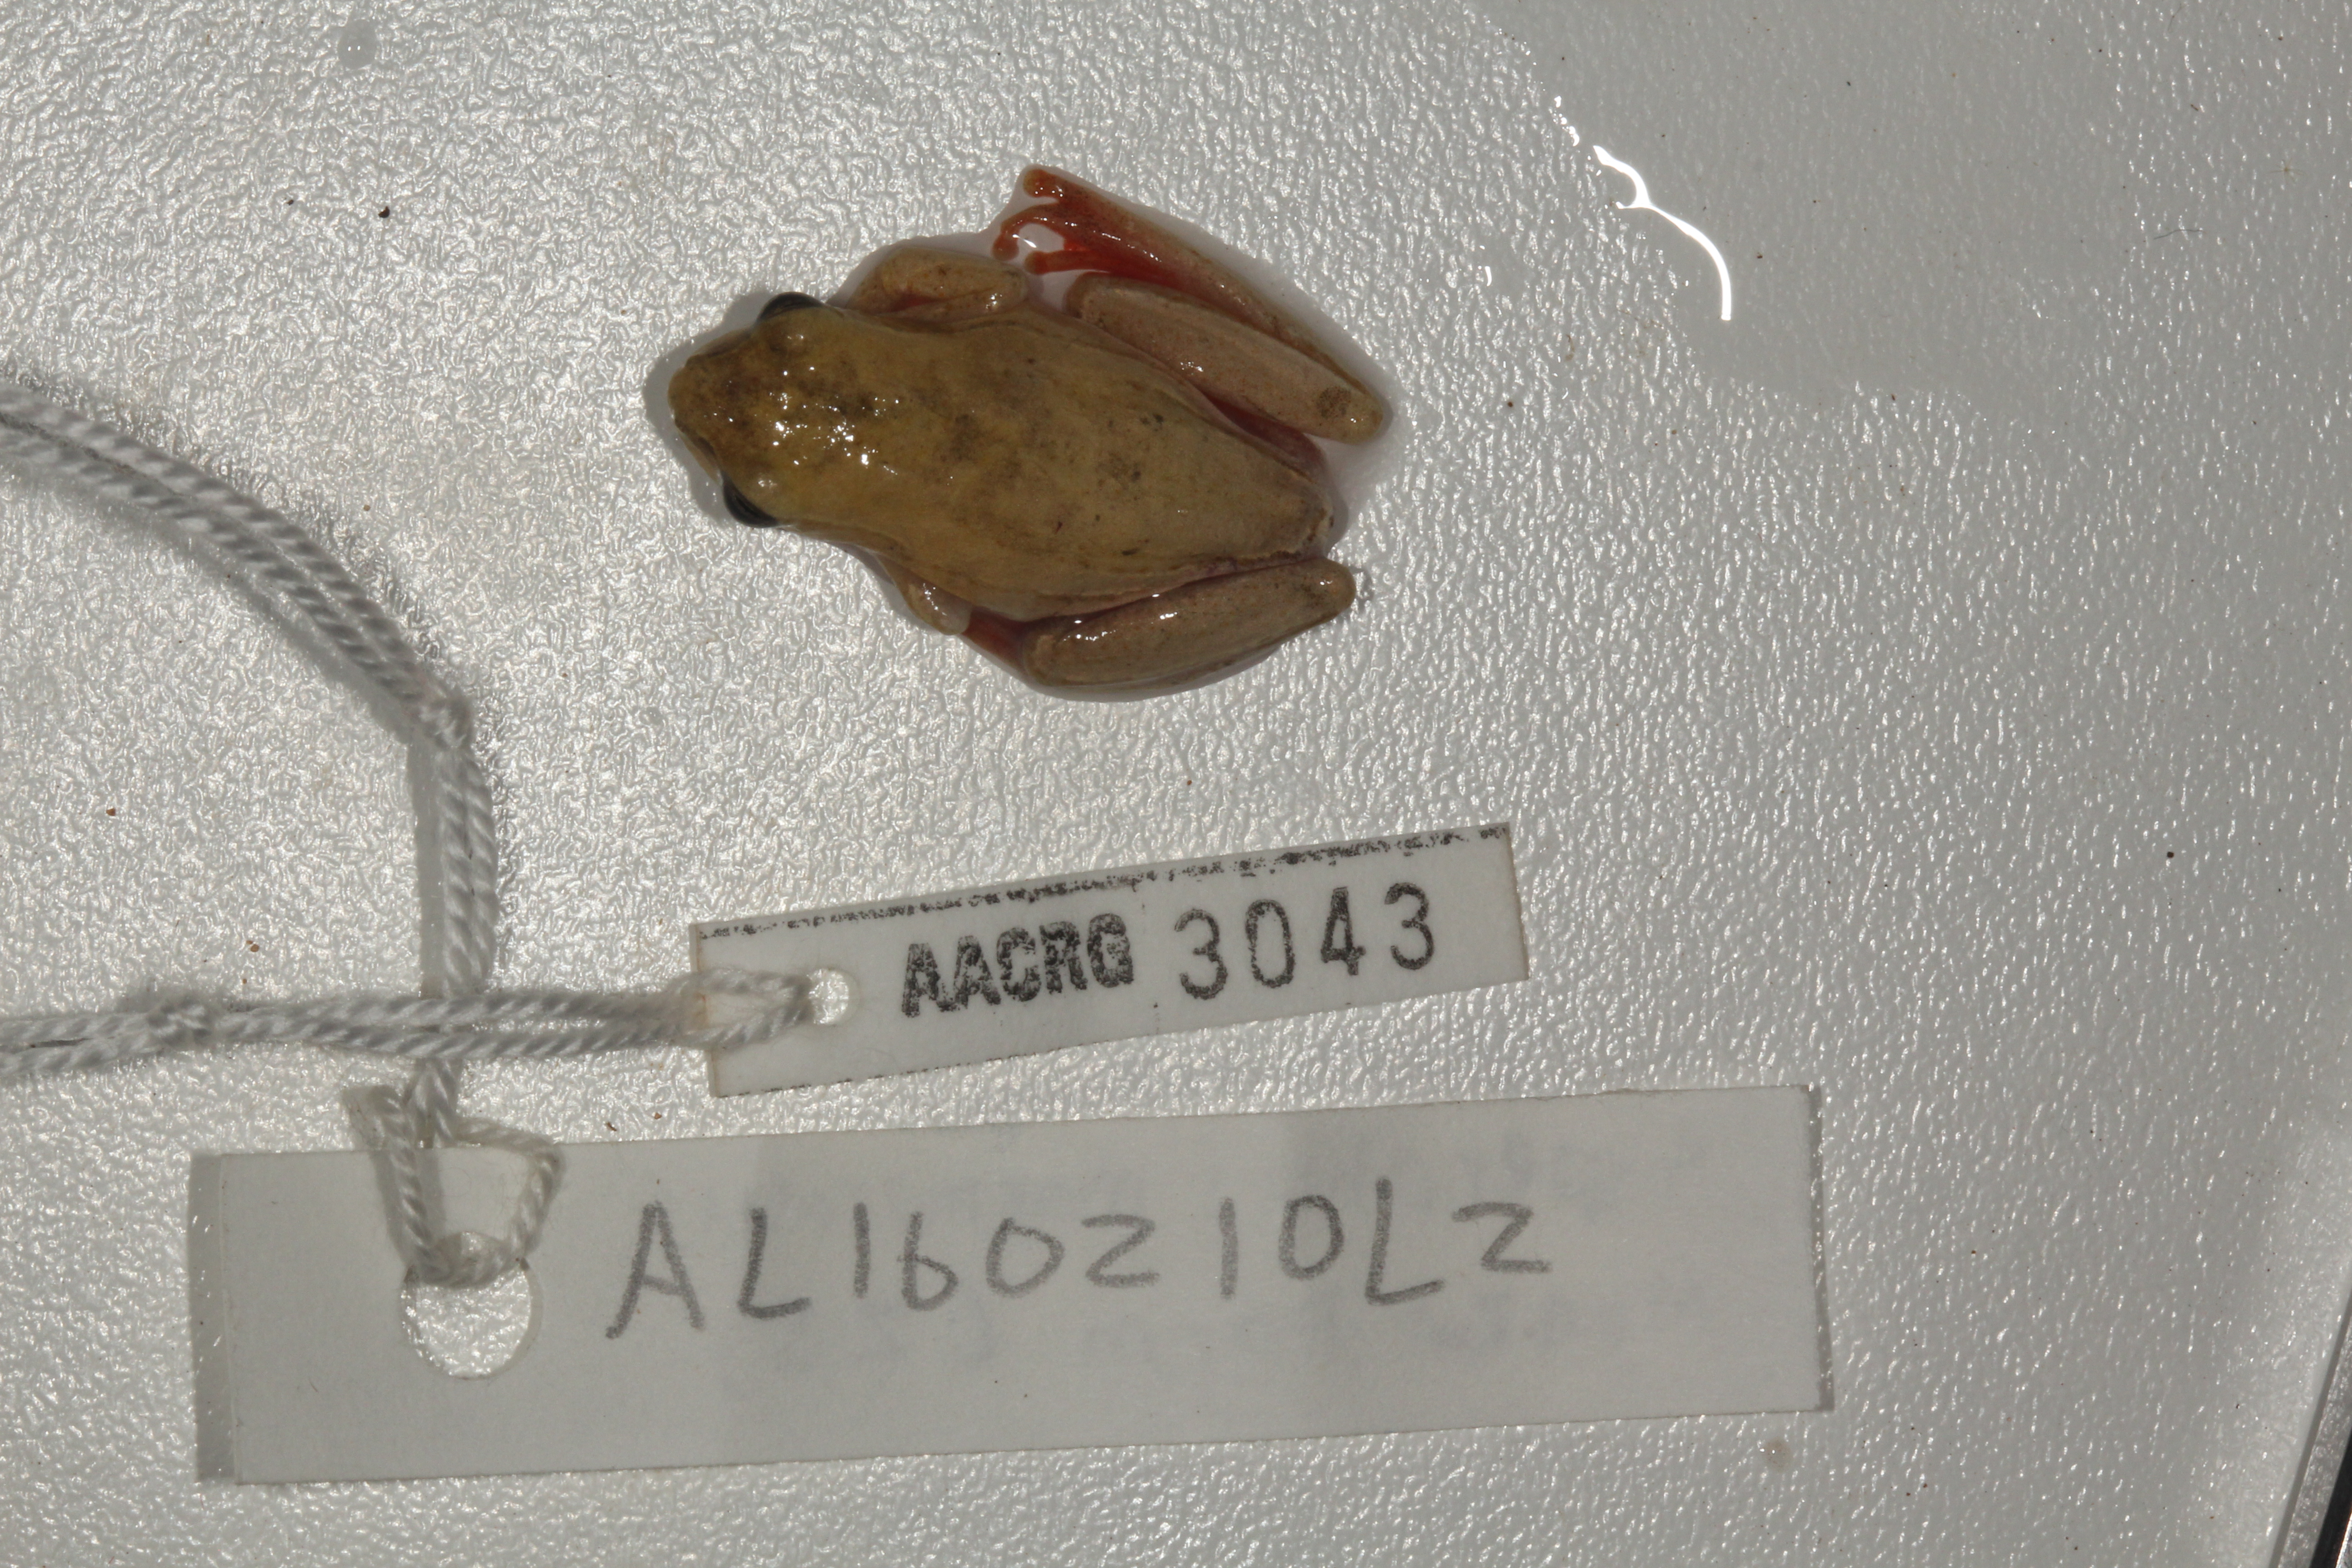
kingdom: Animalia
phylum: Chordata
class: Amphibia
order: Anura
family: Hyperoliidae
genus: Hyperolius
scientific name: Hyperolius marmoratus
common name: Painted reed frog
